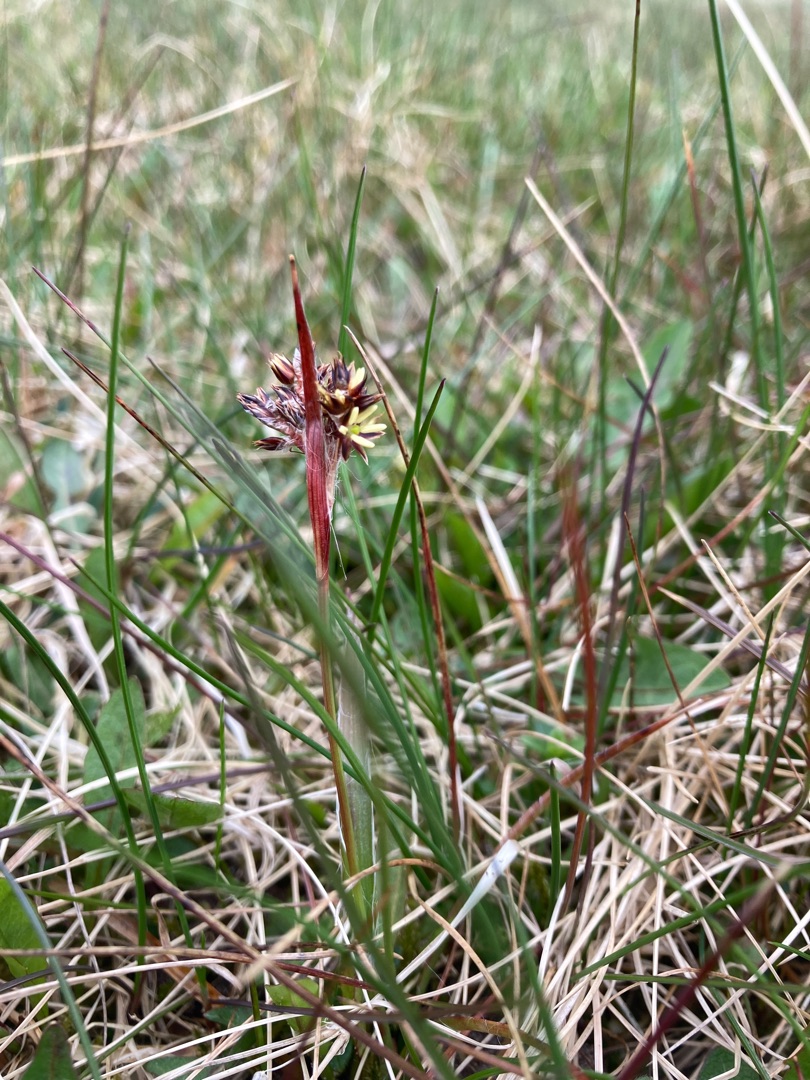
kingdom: Plantae
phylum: Tracheophyta
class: Liliopsida
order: Poales
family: Juncaceae
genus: Luzula
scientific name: Luzula campestris
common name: Mark-frytle
